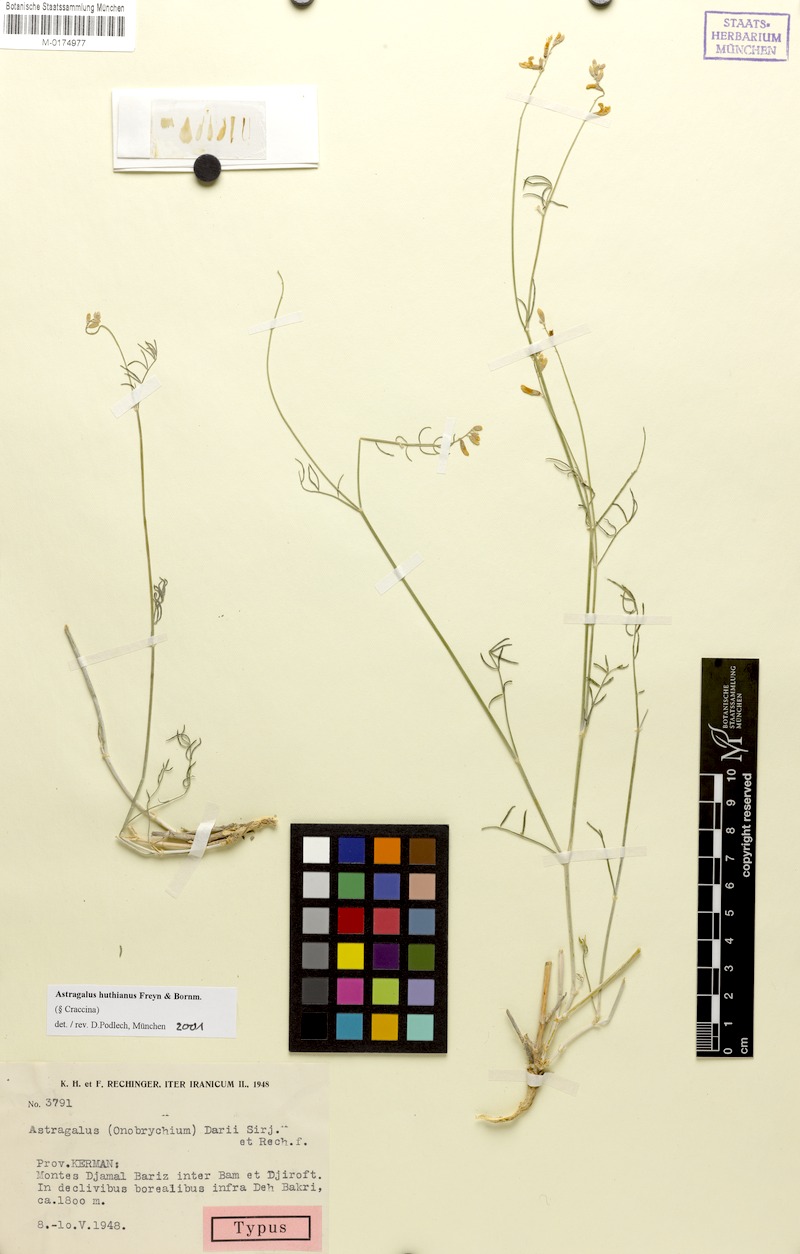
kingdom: Plantae
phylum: Tracheophyta
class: Magnoliopsida
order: Fabales
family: Fabaceae
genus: Astragalus
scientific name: Astragalus huthianus
